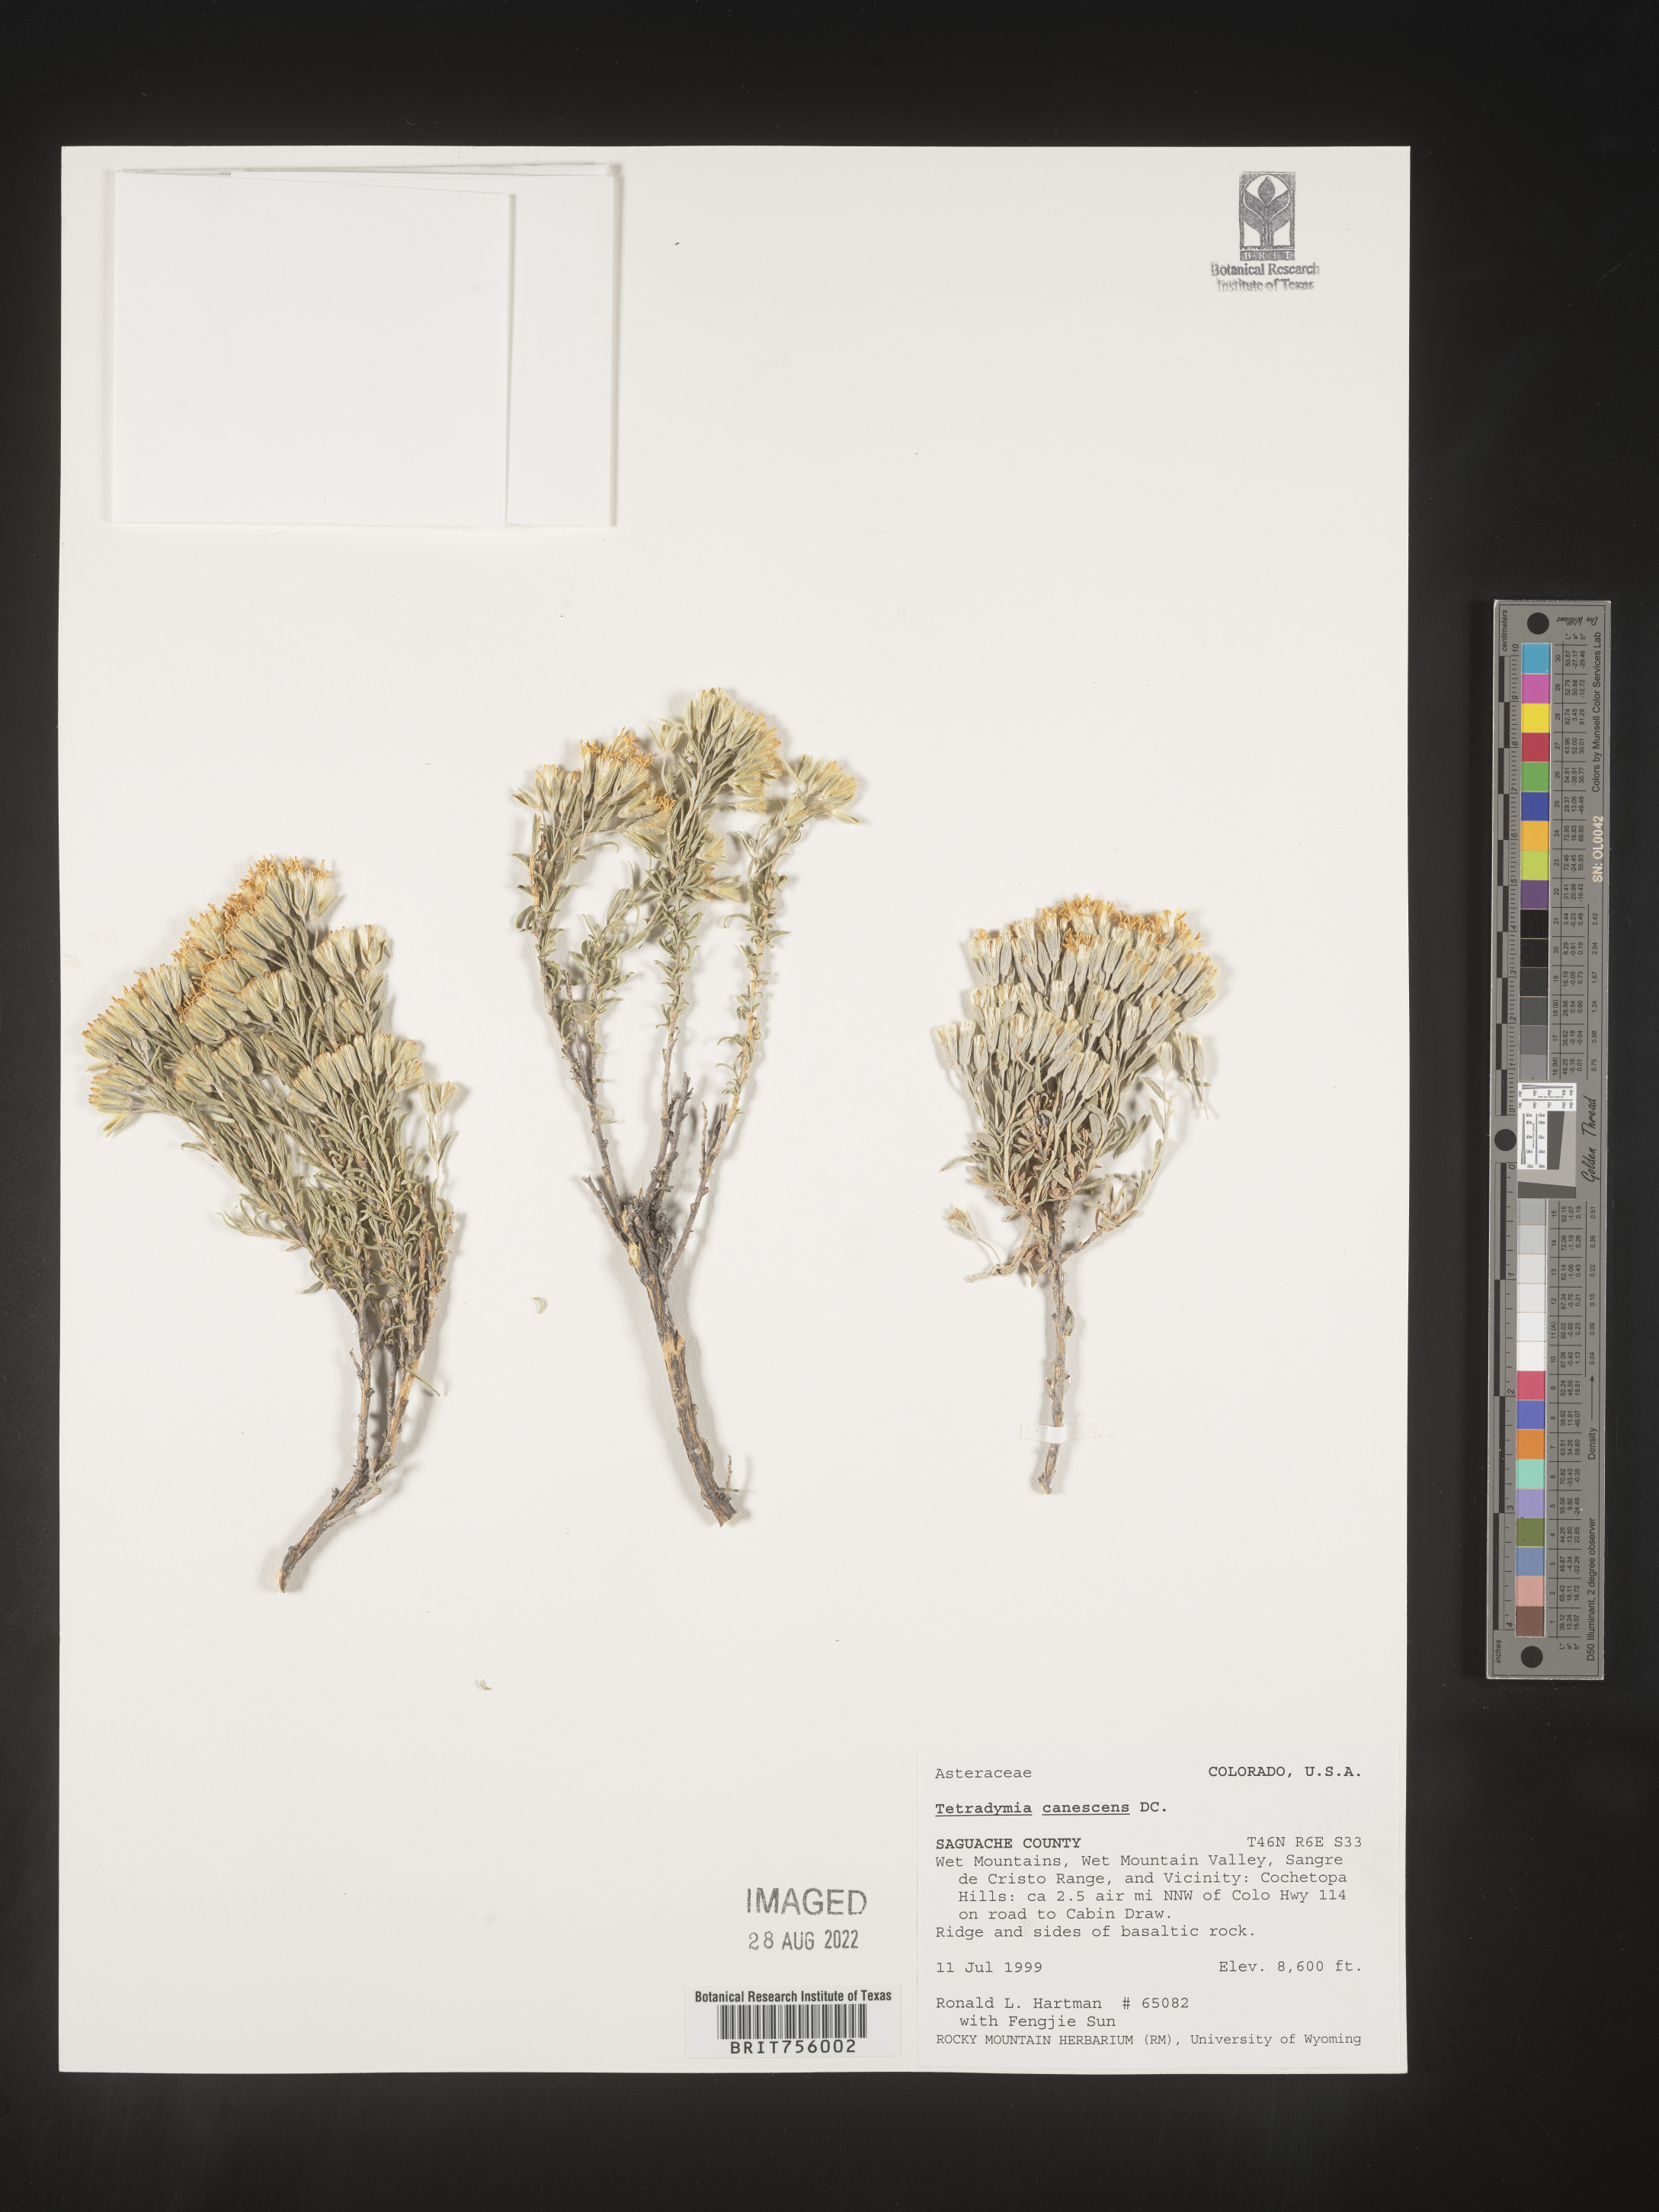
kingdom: Plantae
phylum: Tracheophyta
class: Magnoliopsida
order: Asterales
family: Asteraceae
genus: Tetradymia
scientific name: Tetradymia canescens
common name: Spineless horsebrush
